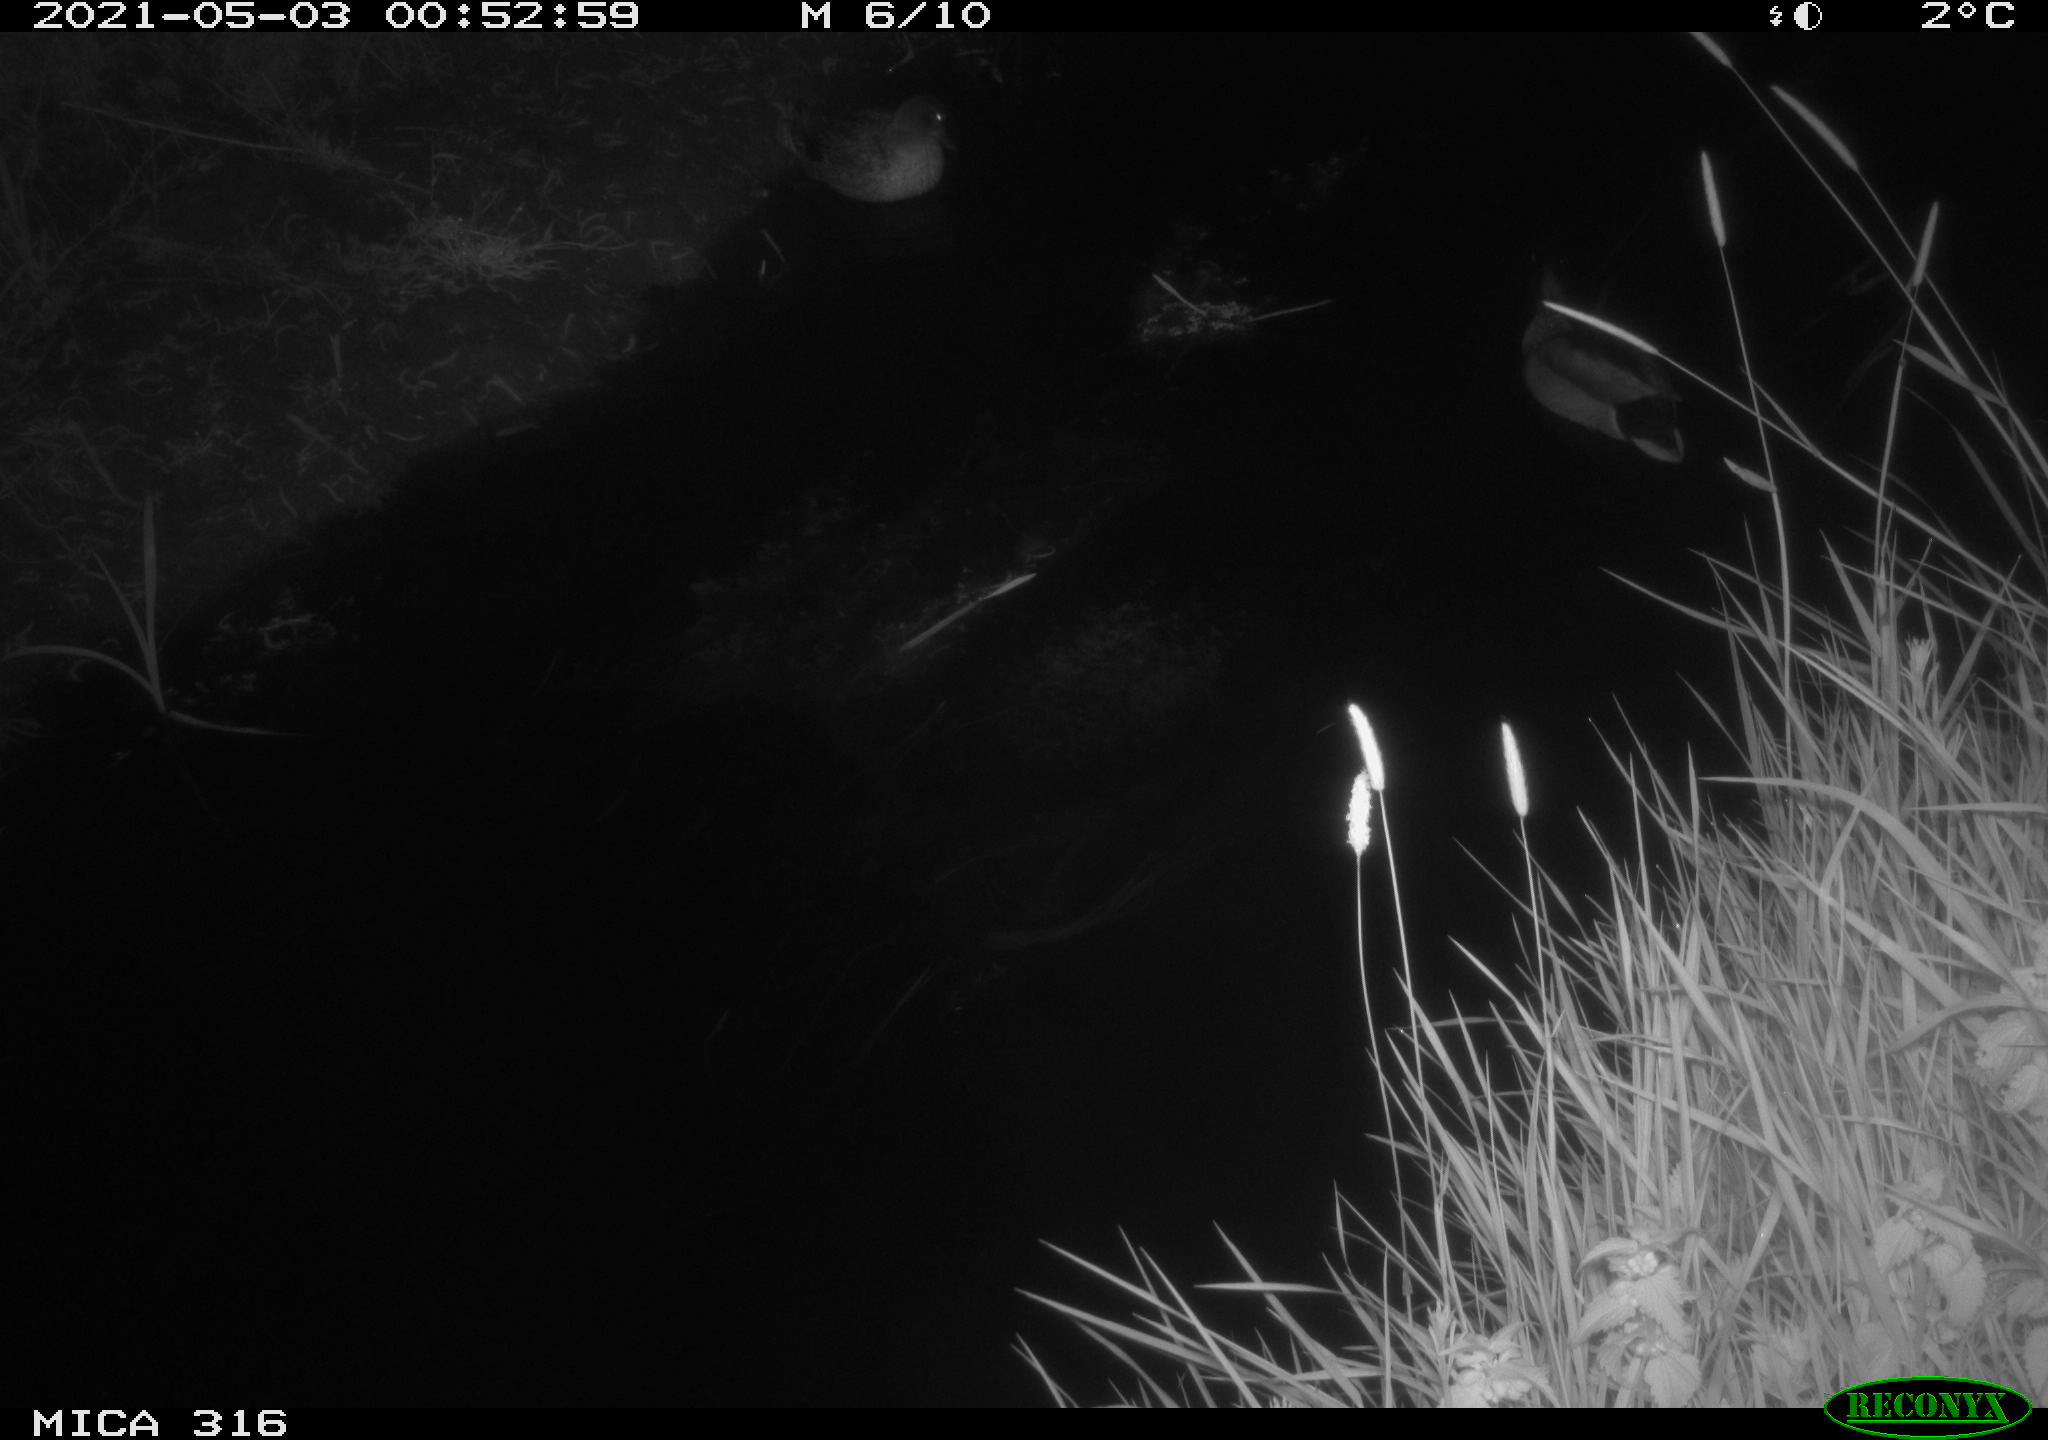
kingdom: Animalia
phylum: Chordata
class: Aves
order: Anseriformes
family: Anatidae
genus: Anas
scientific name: Anas platyrhynchos
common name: Mallard
